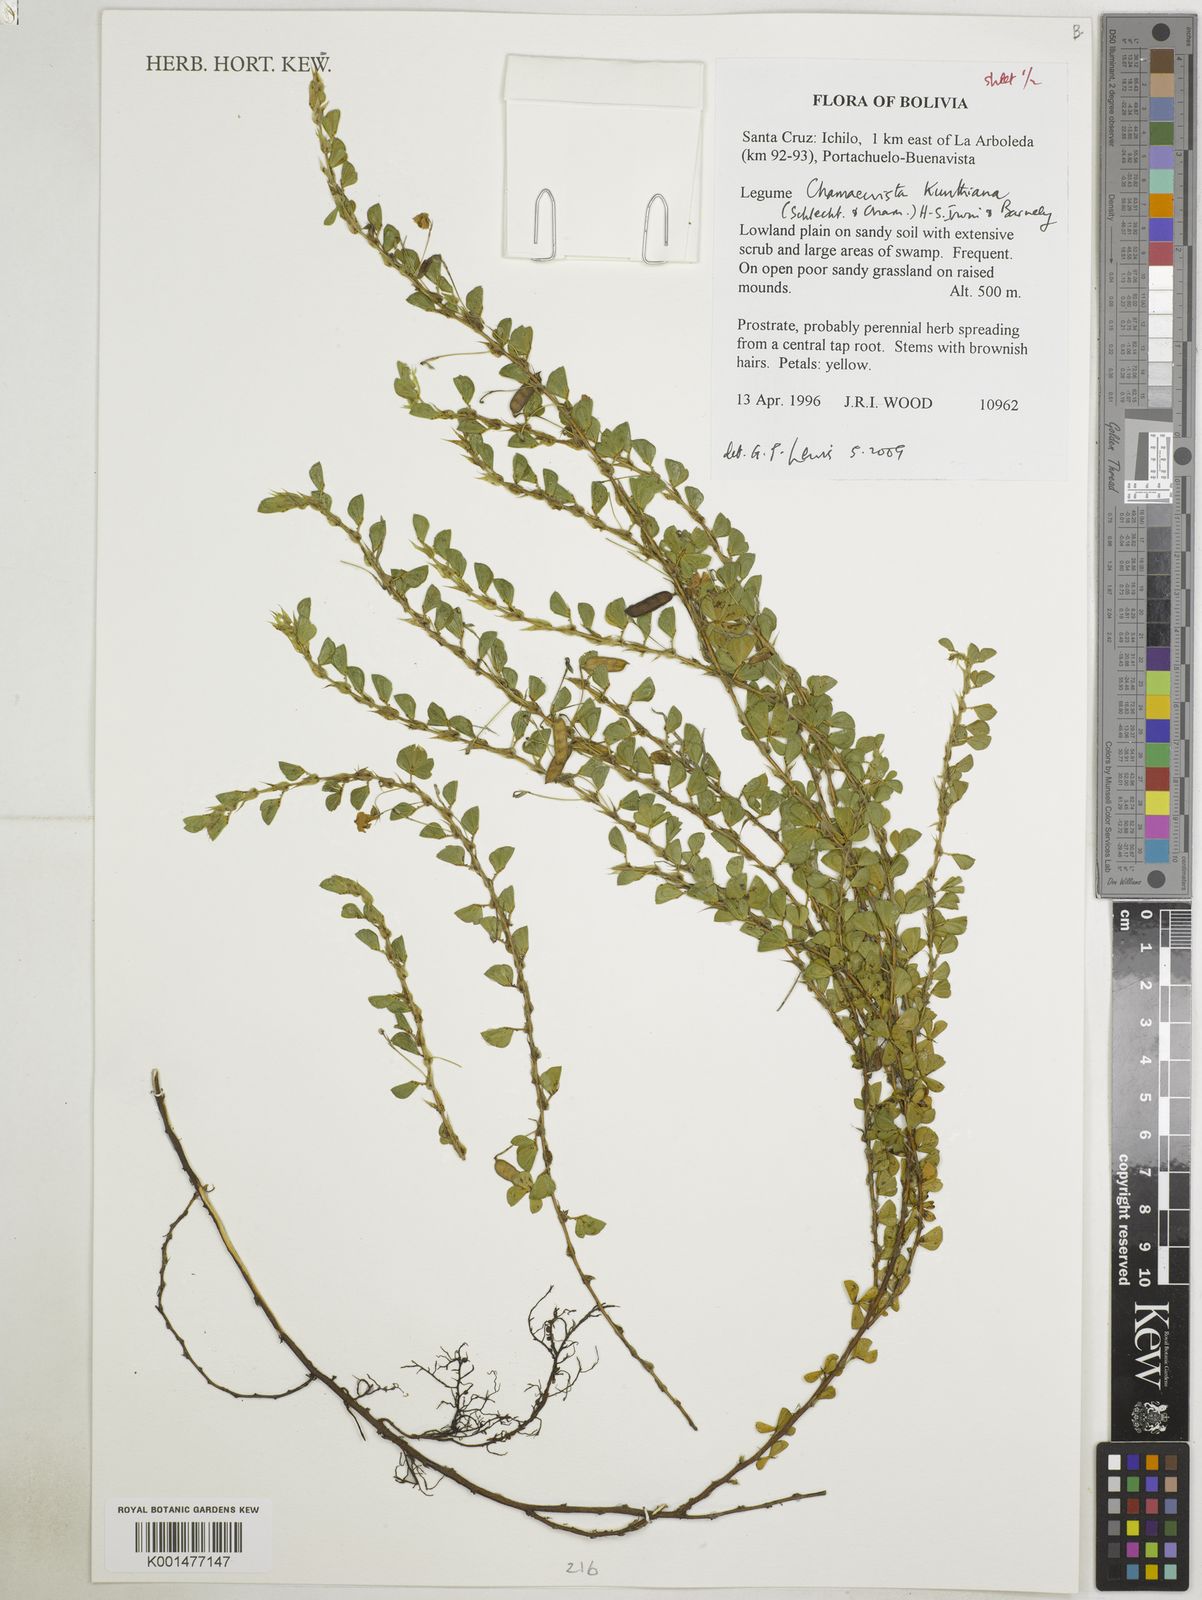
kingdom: Plantae
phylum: Tracheophyta
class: Magnoliopsida
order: Fabales
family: Fabaceae
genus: Chamaecrista
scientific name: Chamaecrista kunthiana
